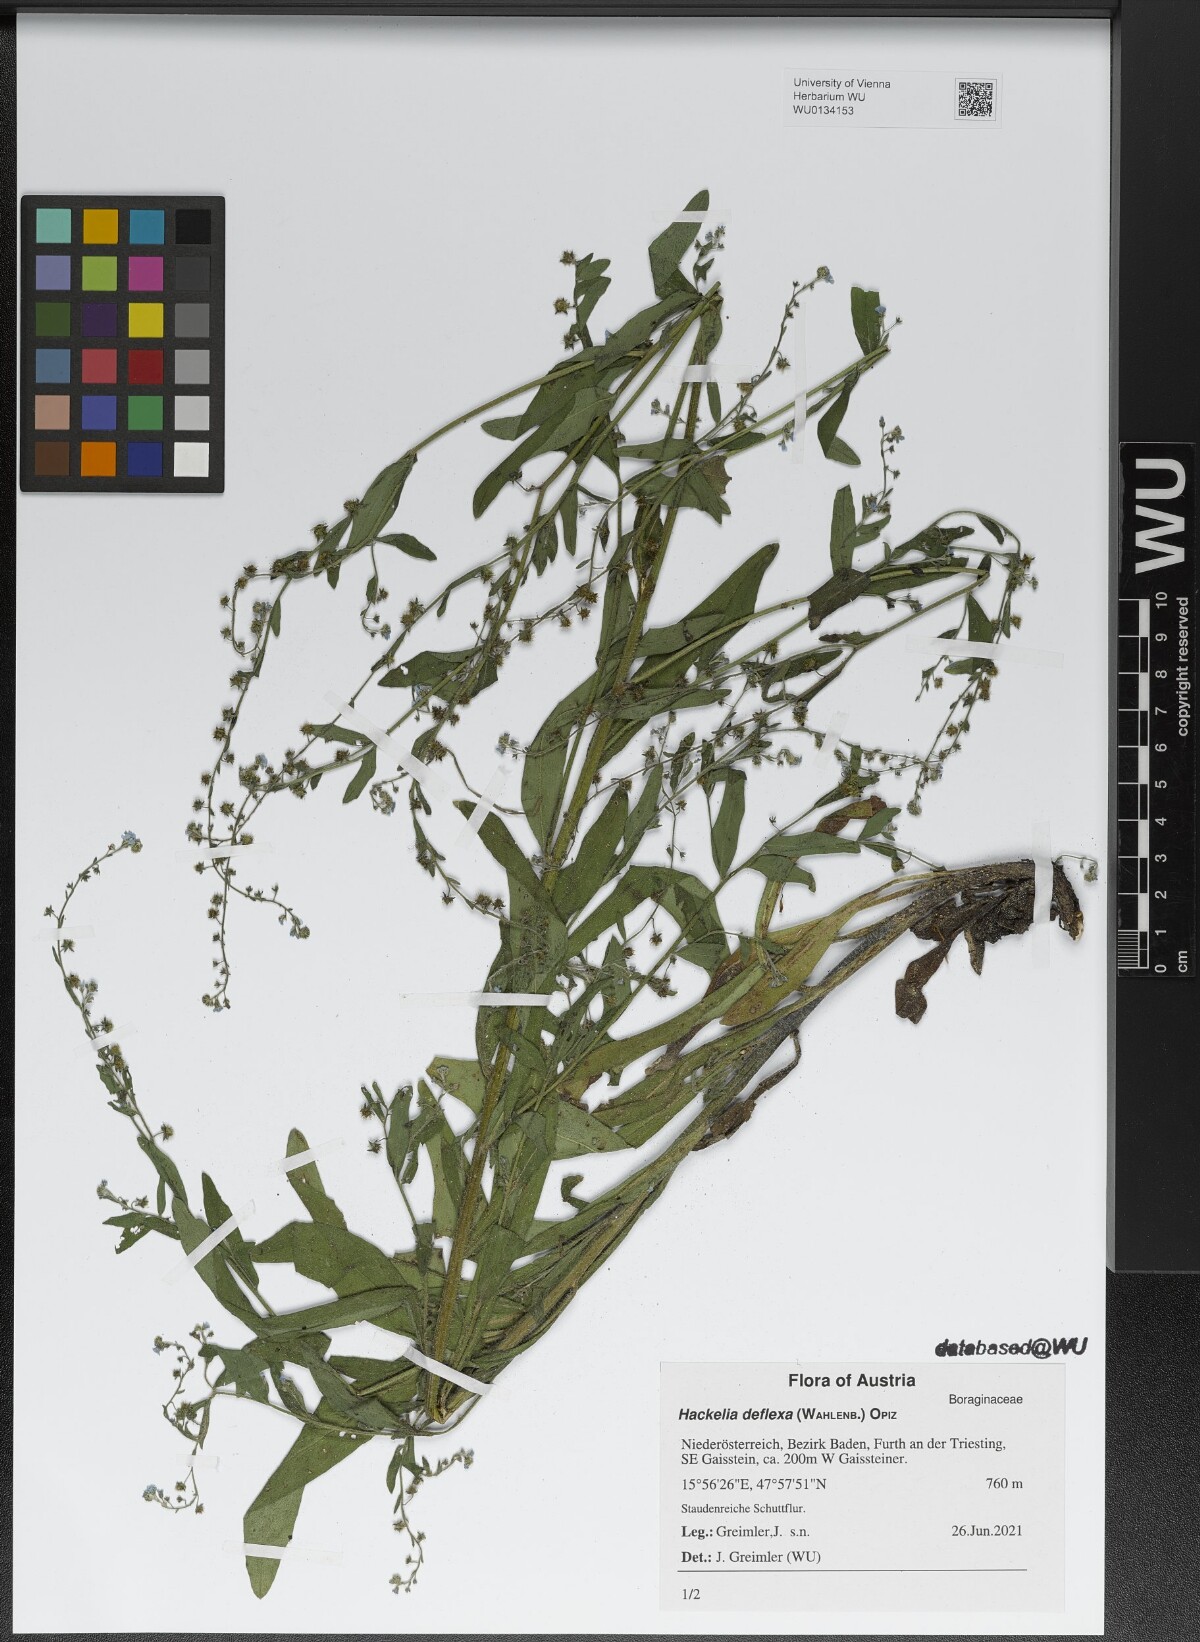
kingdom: Plantae
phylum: Tracheophyta
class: Magnoliopsida
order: Boraginales
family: Boraginaceae
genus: Hackelia
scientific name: Hackelia deflexa
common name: Nodding stickseed
